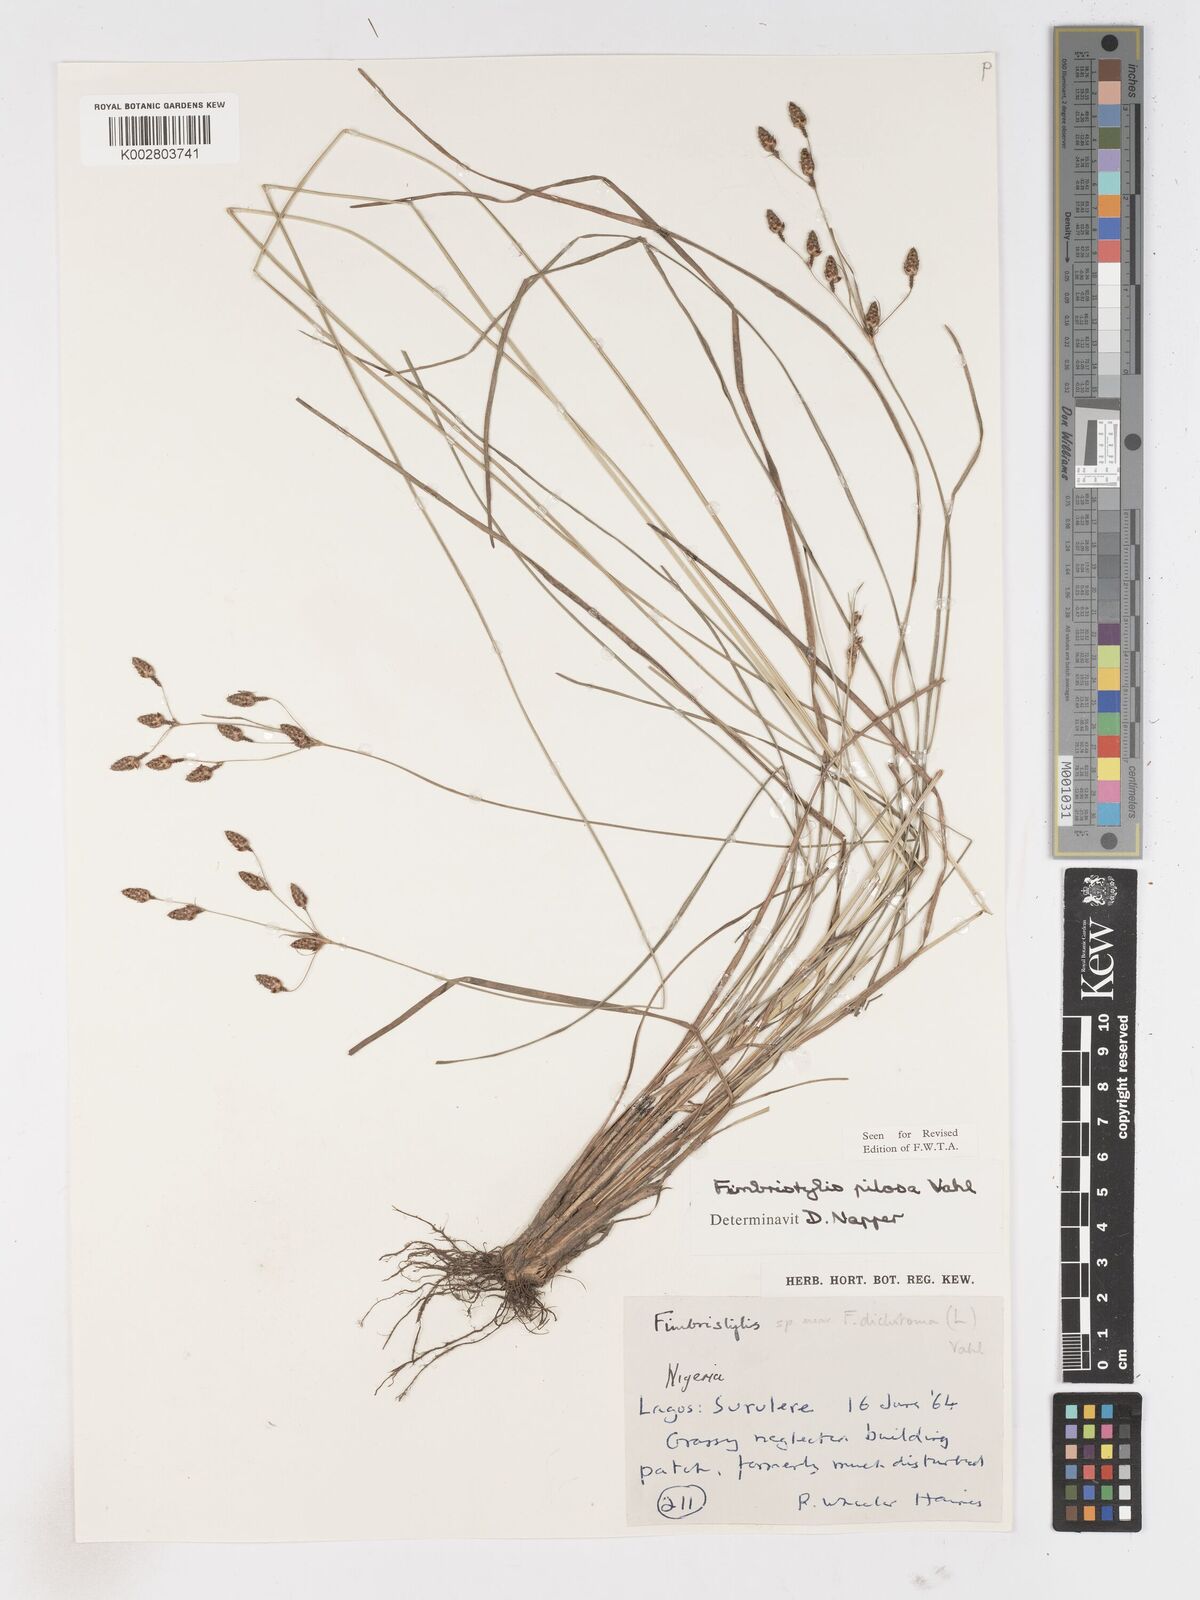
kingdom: Plantae
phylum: Tracheophyta
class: Liliopsida
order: Poales
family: Cyperaceae
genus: Fimbristylis
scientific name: Fimbristylis pilosa
